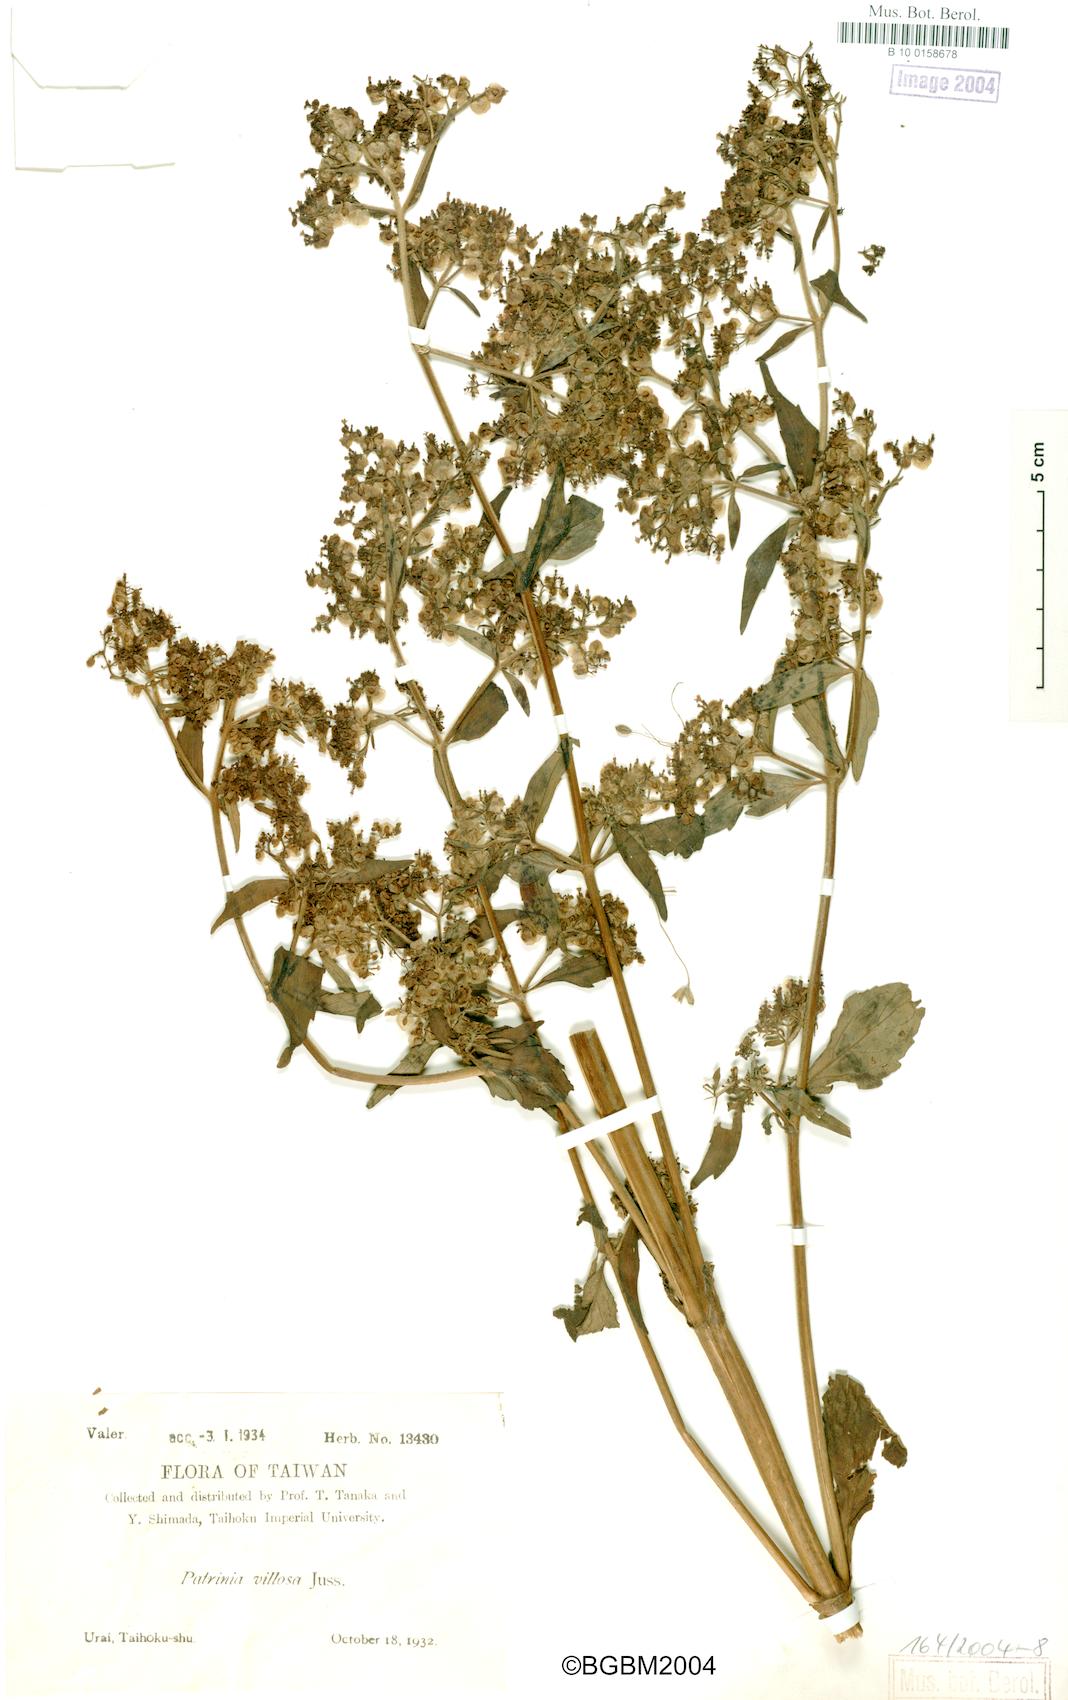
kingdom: Plantae
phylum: Tracheophyta
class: Magnoliopsida
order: Dipsacales
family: Caprifoliaceae
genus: Patrinia
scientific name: Patrinia villosa
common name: Patrinia
